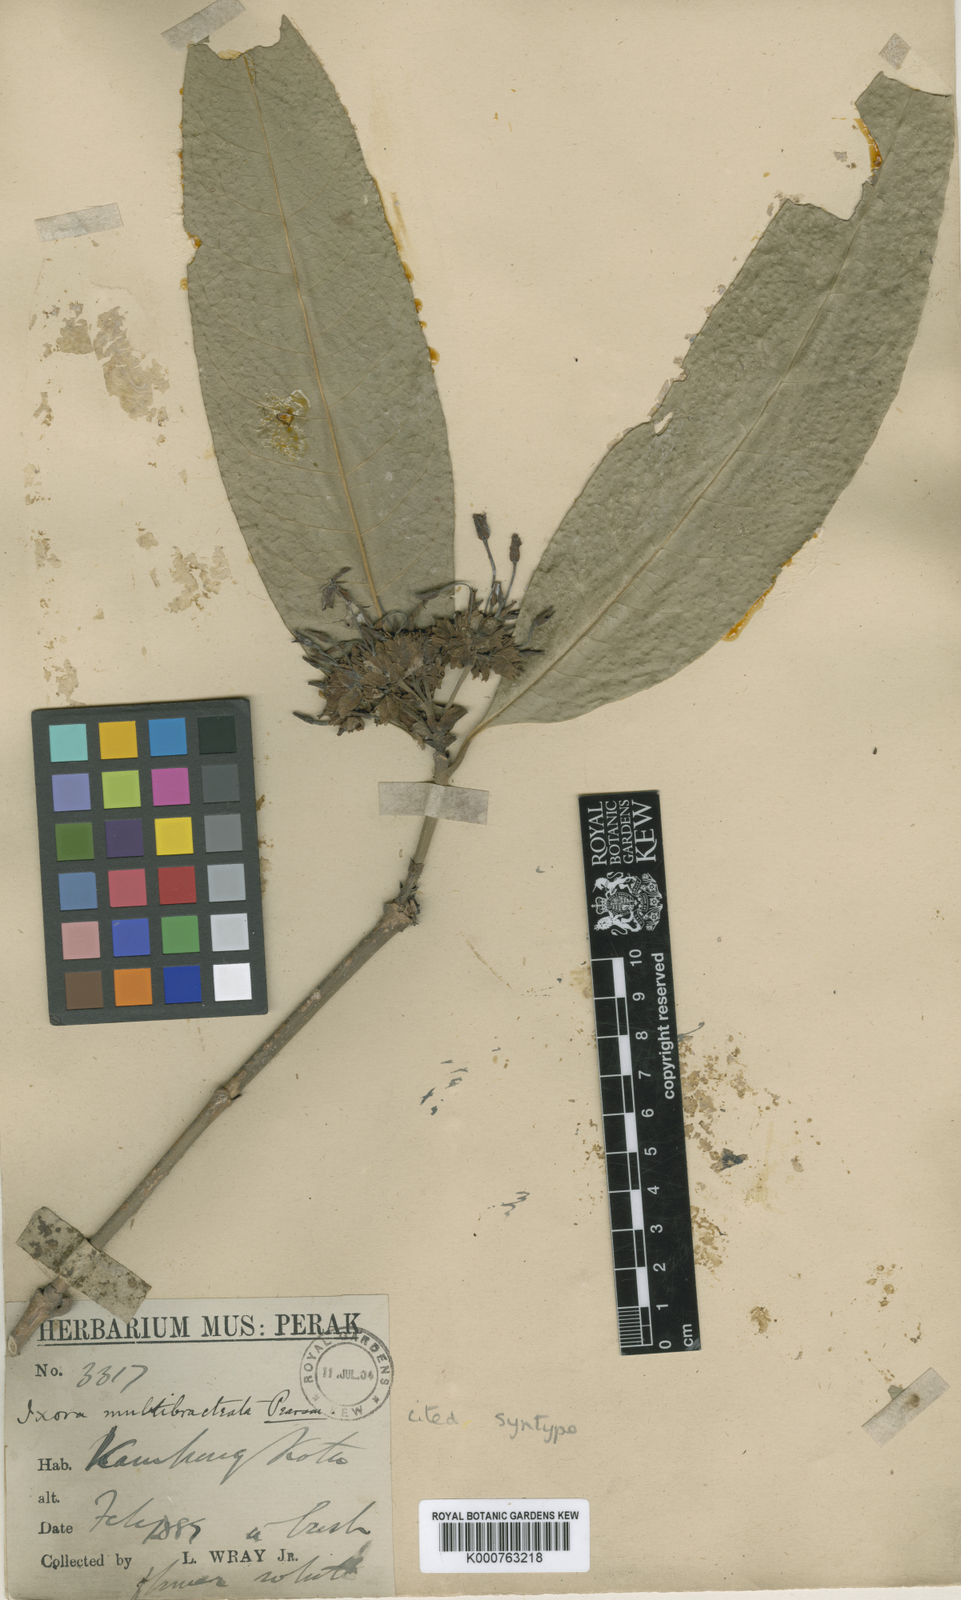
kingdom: Plantae
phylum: Tracheophyta
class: Magnoliopsida
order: Gentianales
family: Rubiaceae
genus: Ixora
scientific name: Ixora umbellata
